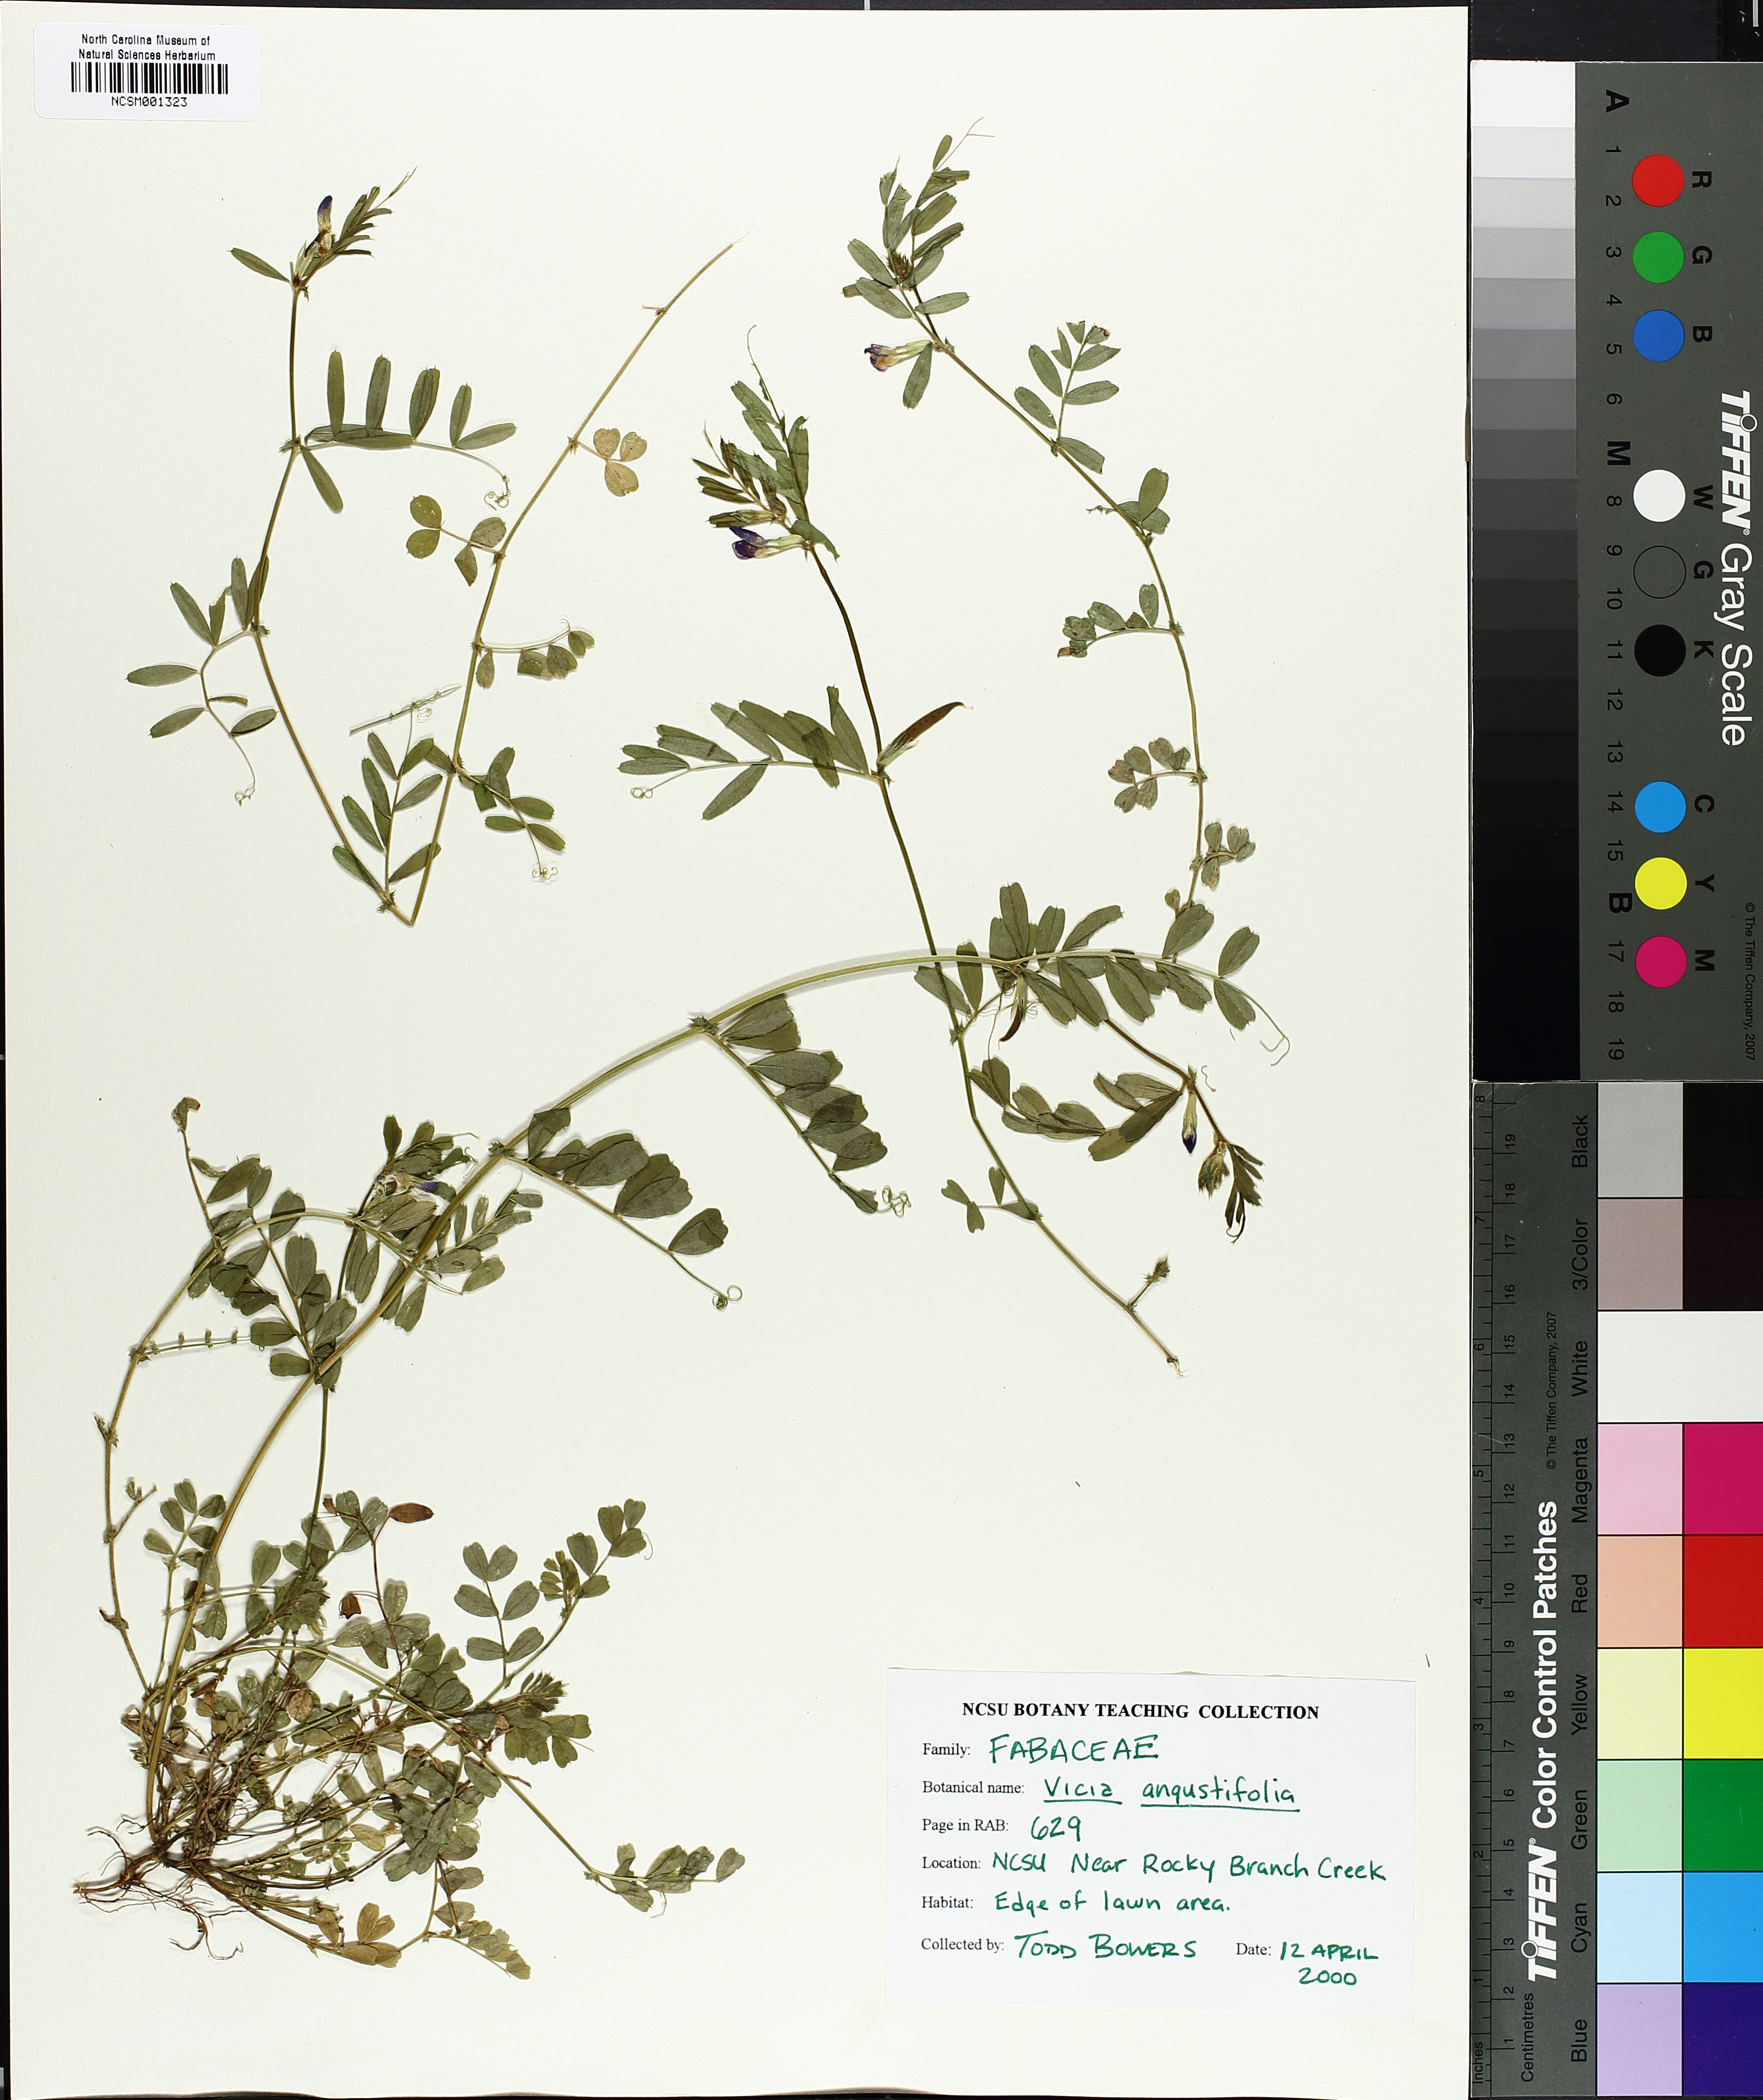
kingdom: Plantae
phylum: Tracheophyta
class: Magnoliopsida
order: Fabales
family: Fabaceae
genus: Vicia
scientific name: Vicia sativa
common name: Garden vetch
